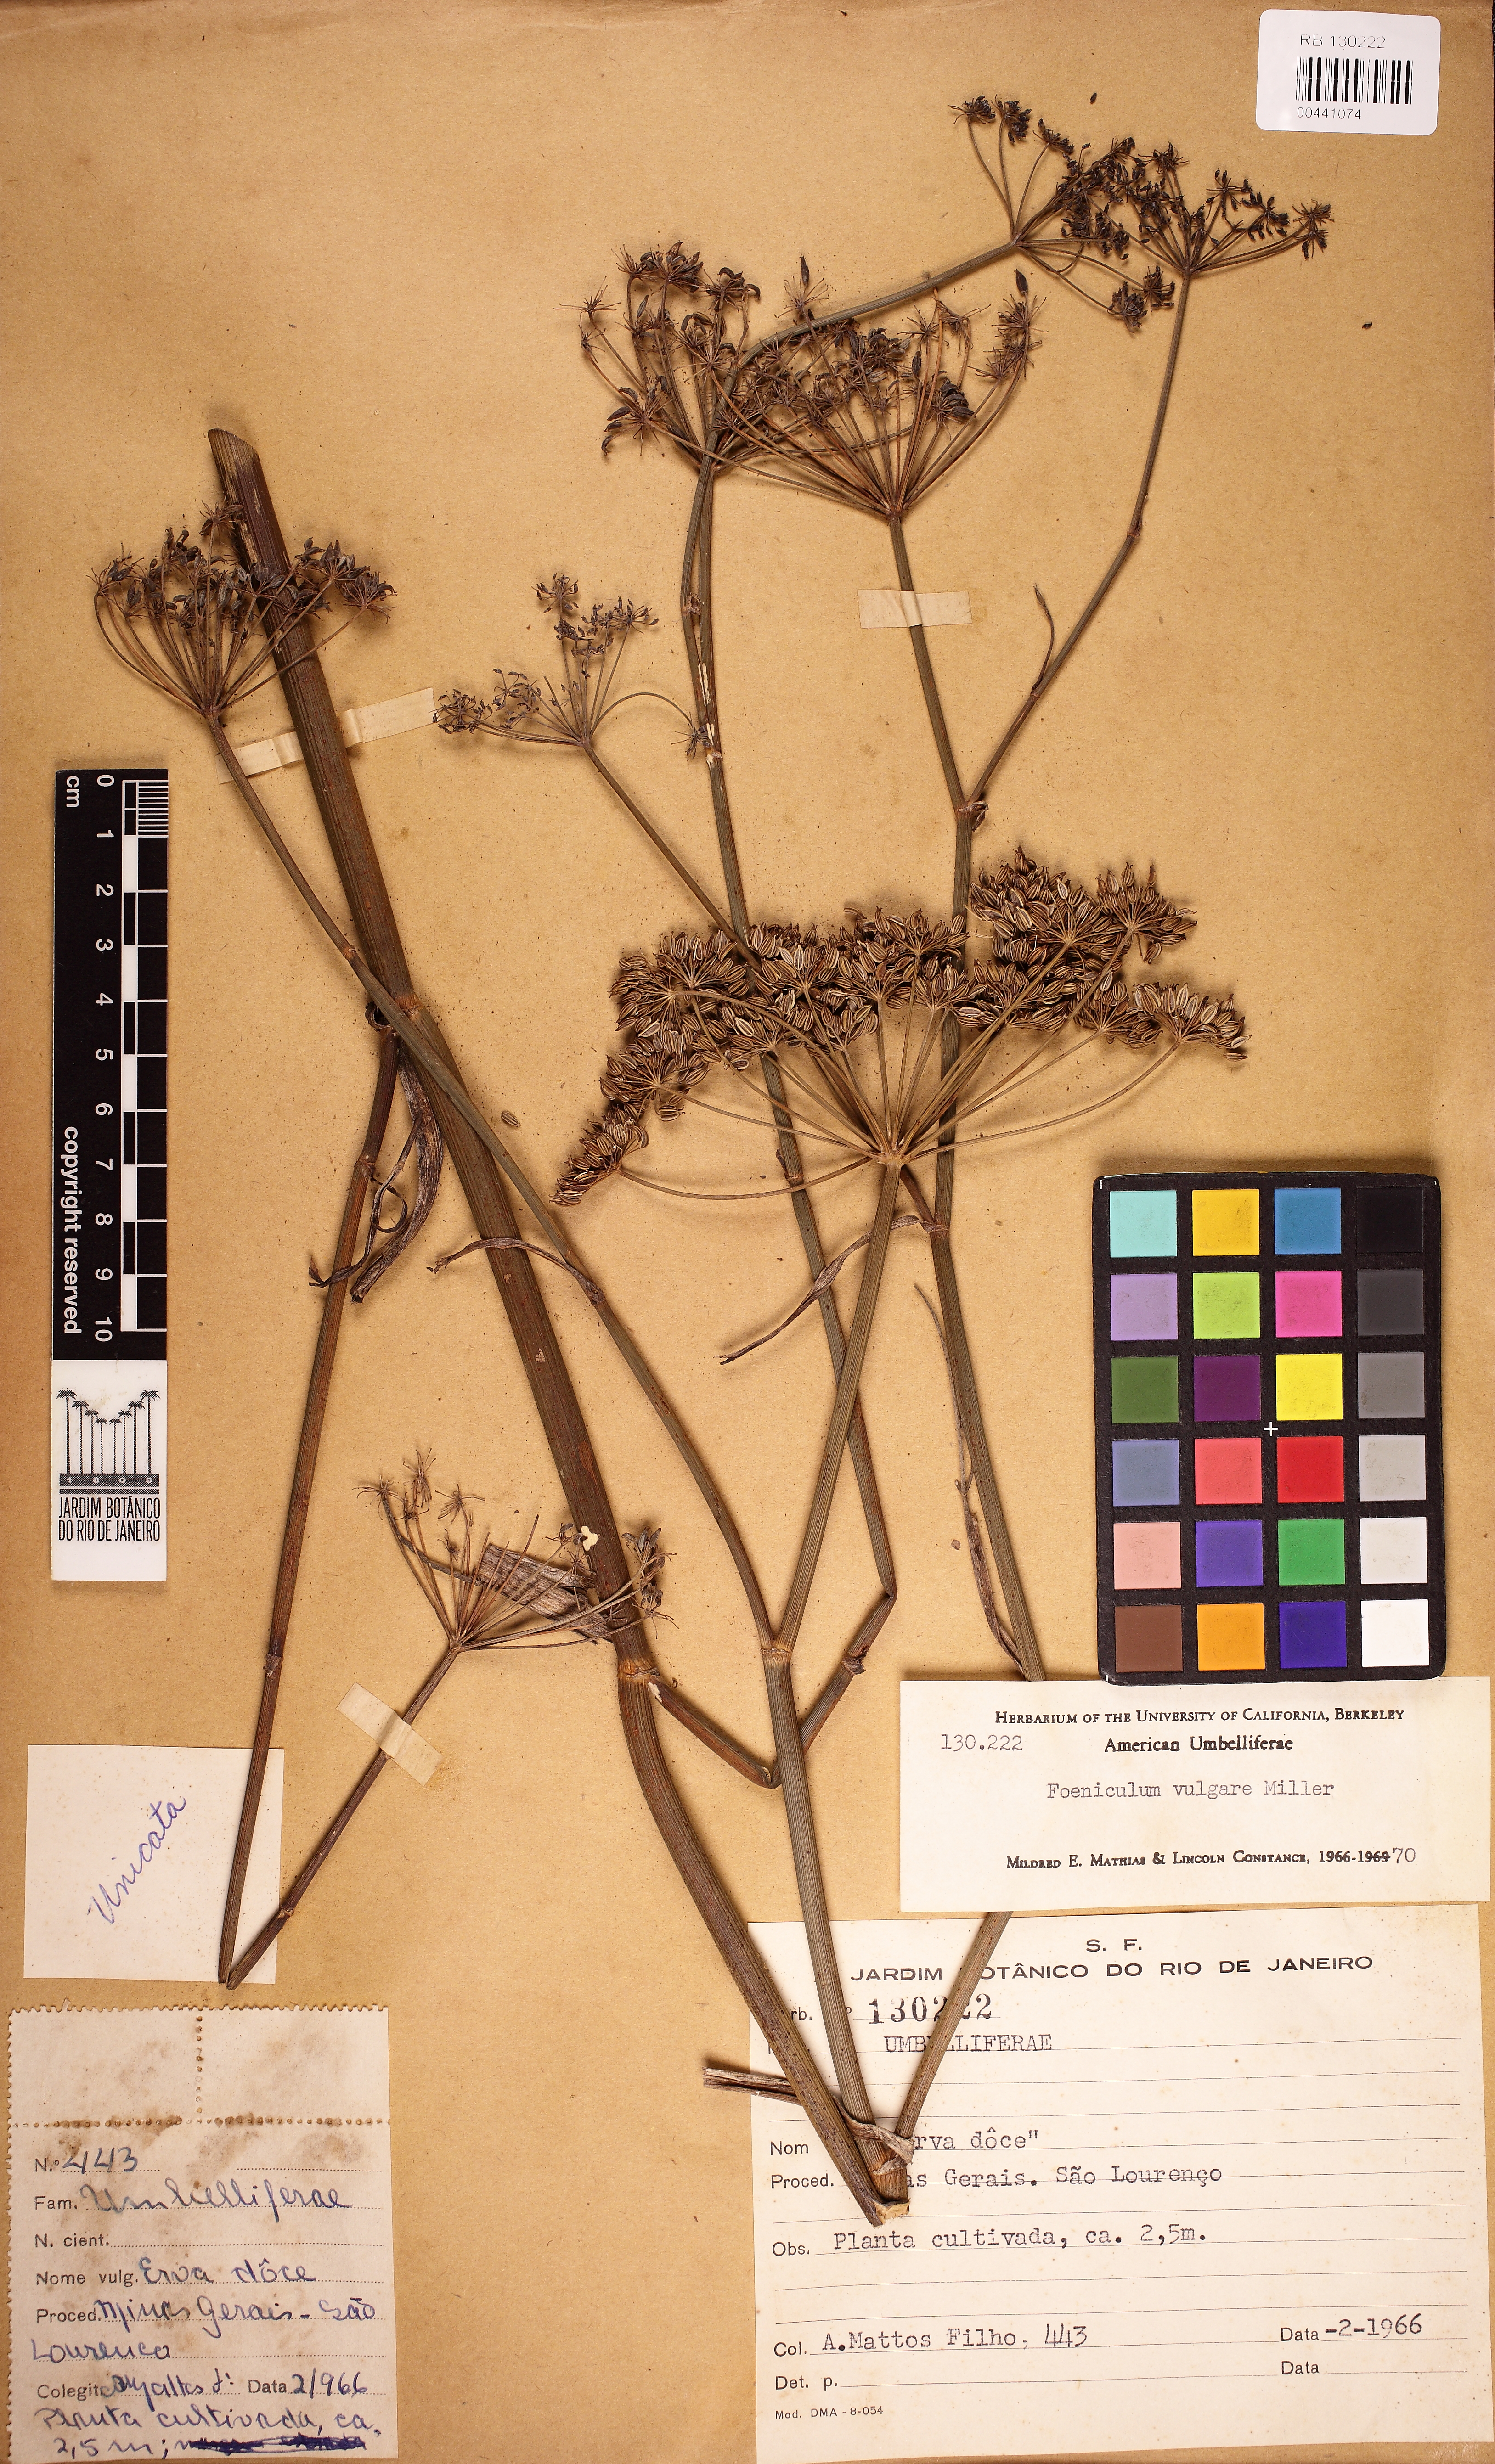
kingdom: Plantae
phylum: Tracheophyta
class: Magnoliopsida
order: Apiales
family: Apiaceae
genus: Foeniculum
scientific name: Foeniculum vulgare
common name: Fennel
